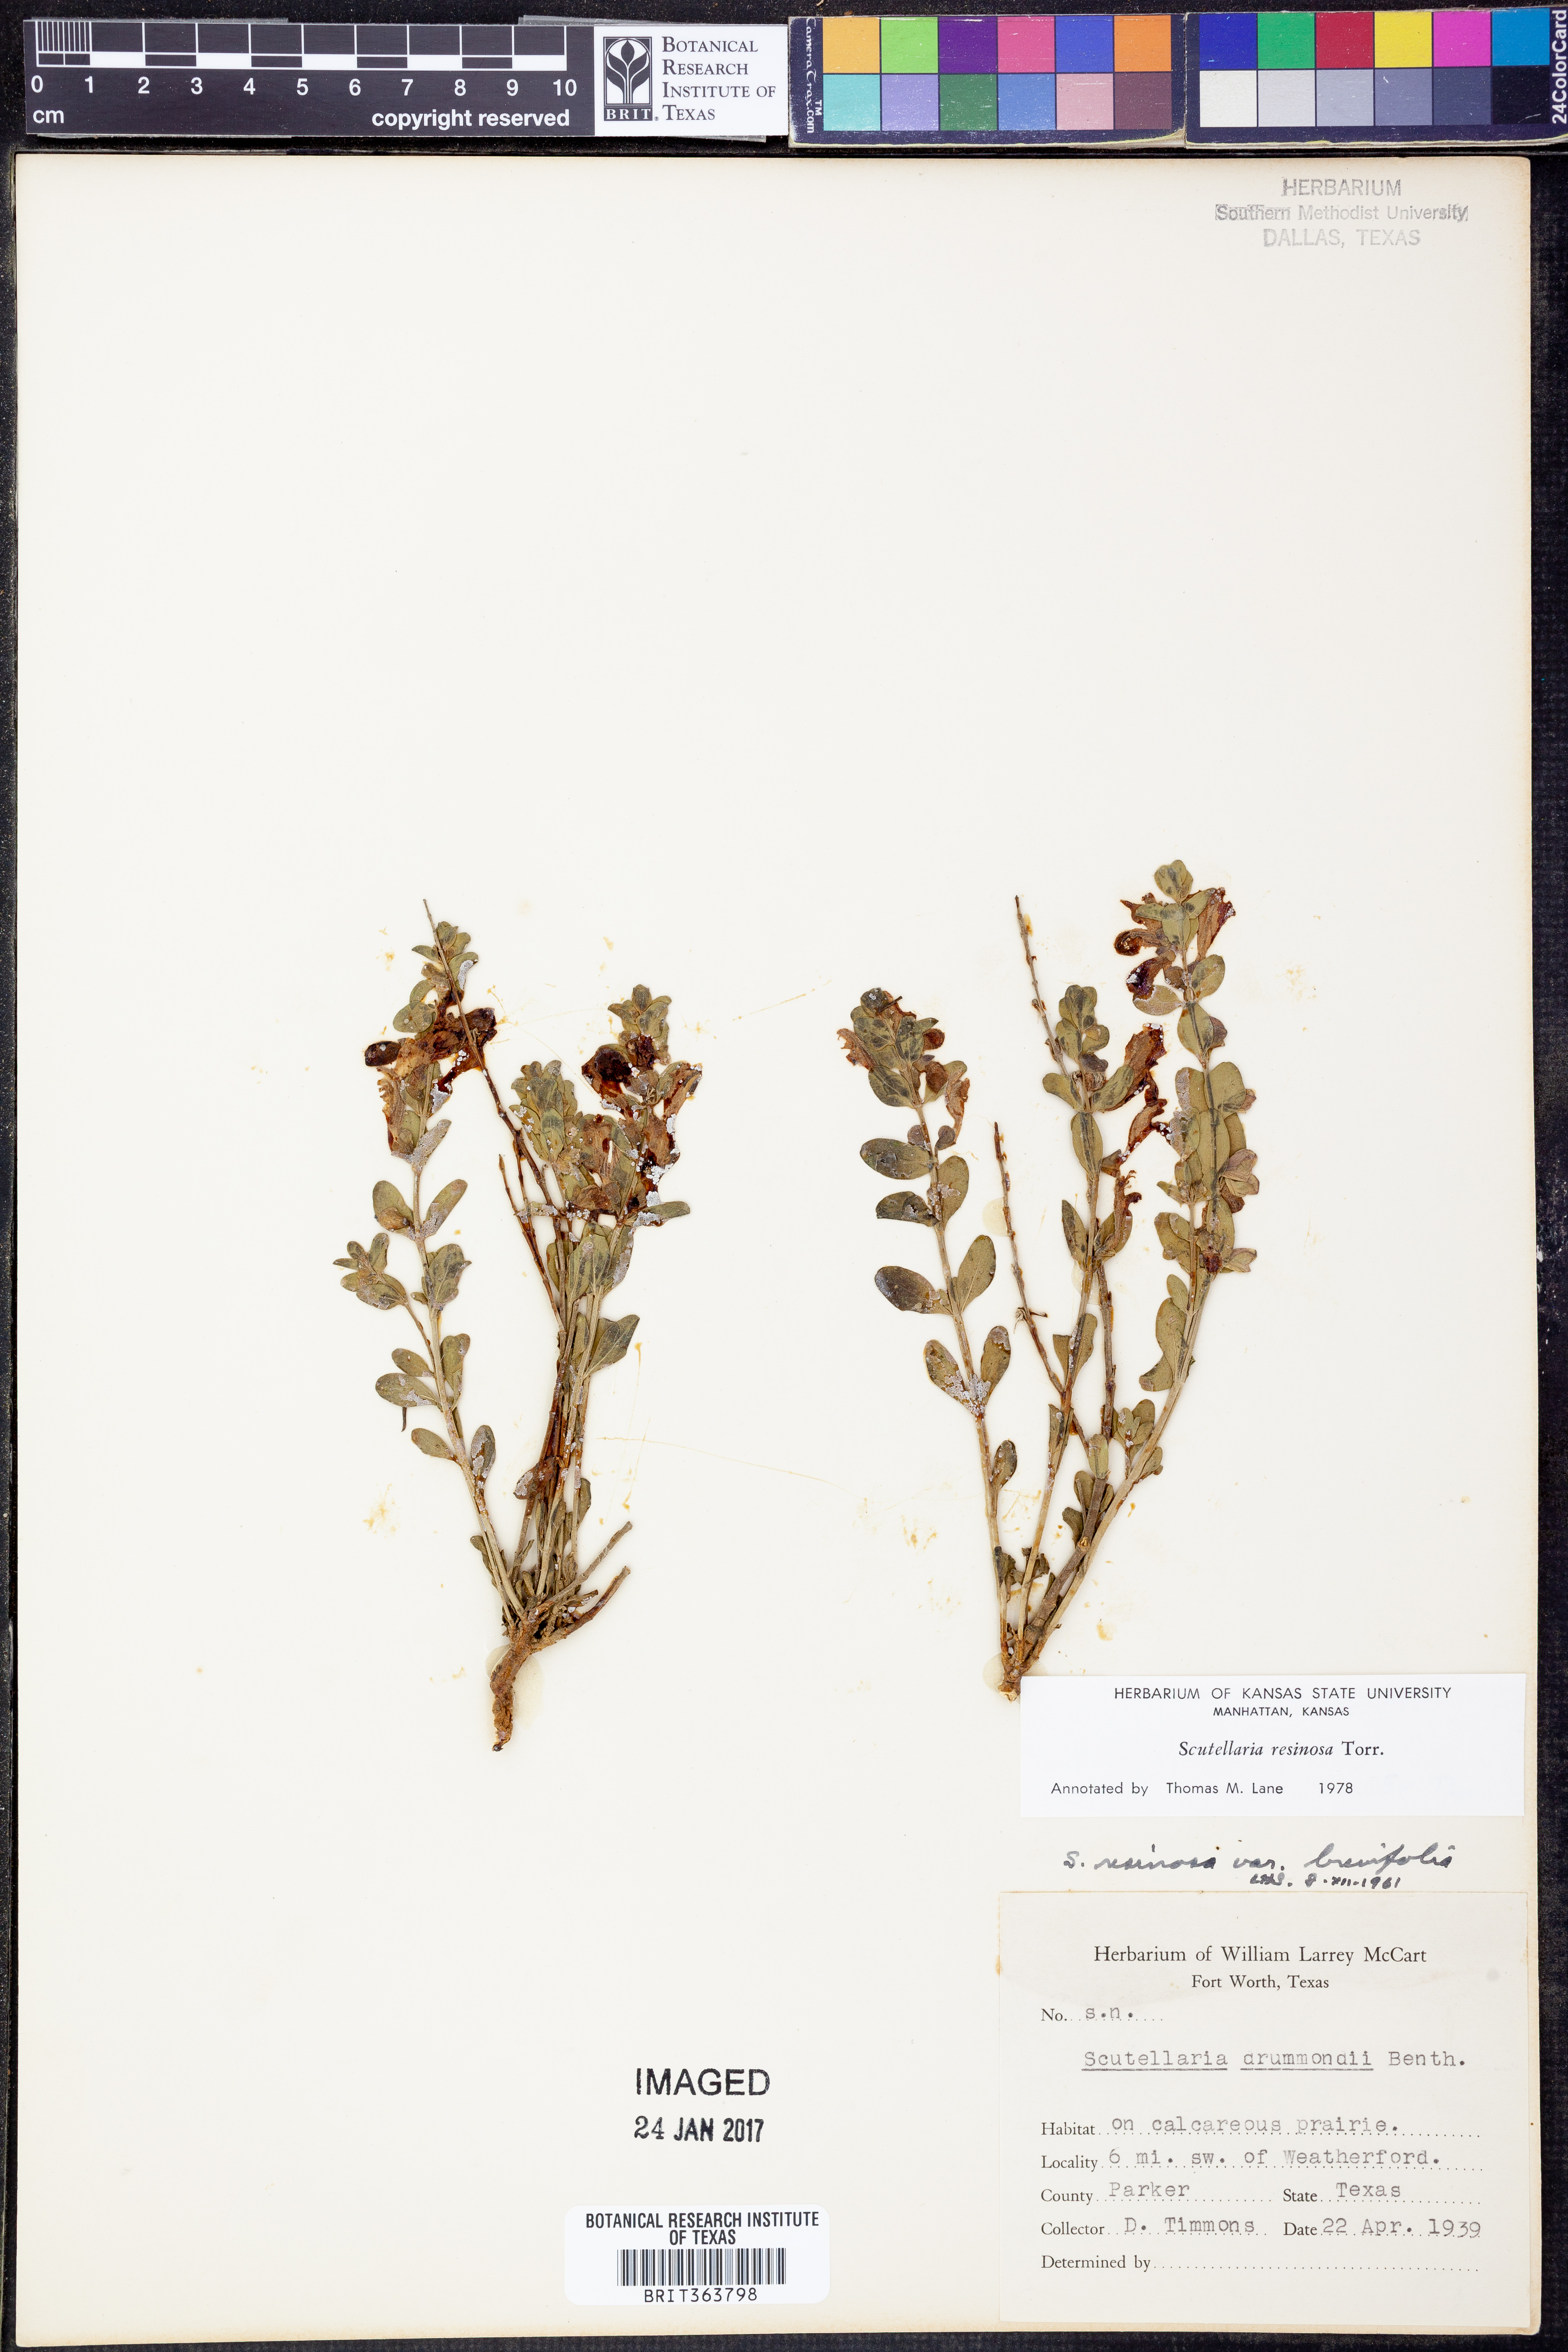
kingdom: Plantae
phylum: Tracheophyta
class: Magnoliopsida
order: Lamiales
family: Lamiaceae
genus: Scutellaria
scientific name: Scutellaria resinosa
